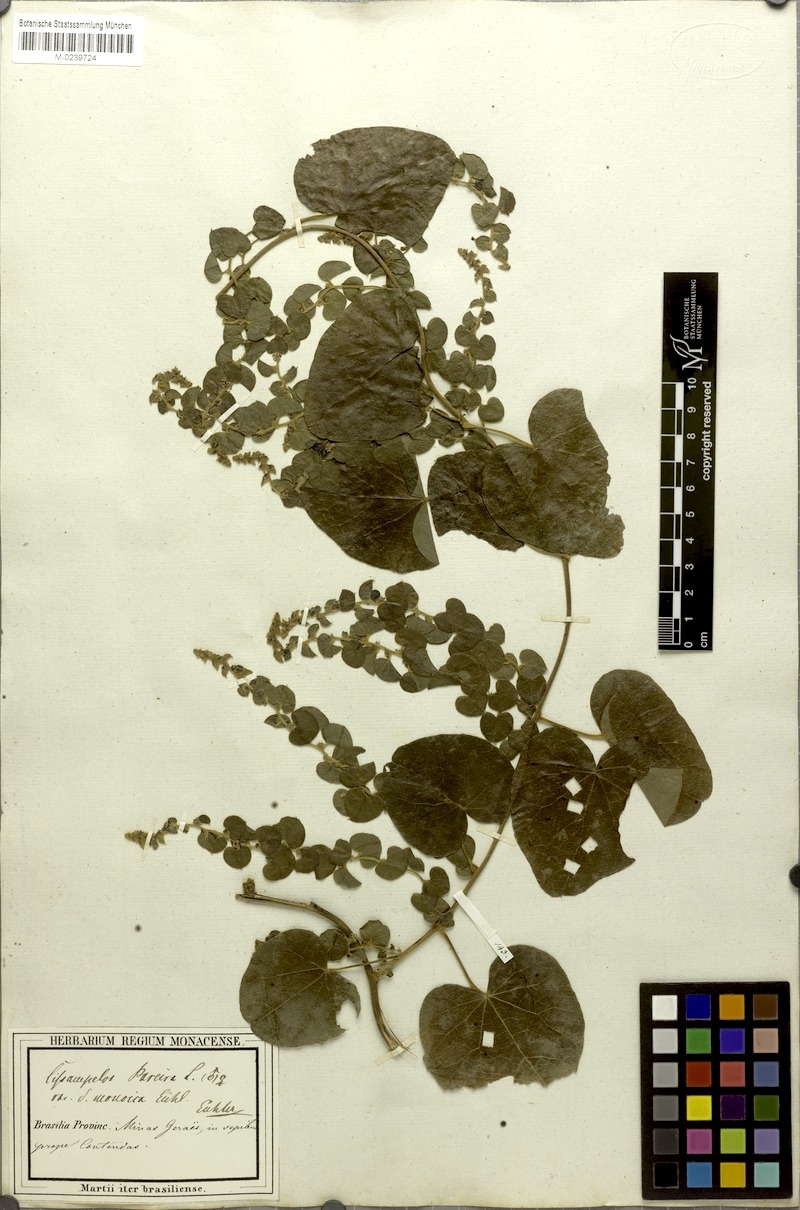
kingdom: Plantae
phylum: Tracheophyta
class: Magnoliopsida
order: Ranunculales
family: Menispermaceae
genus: Cissampelos
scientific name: Cissampelos pareira
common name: Velvetleaf
